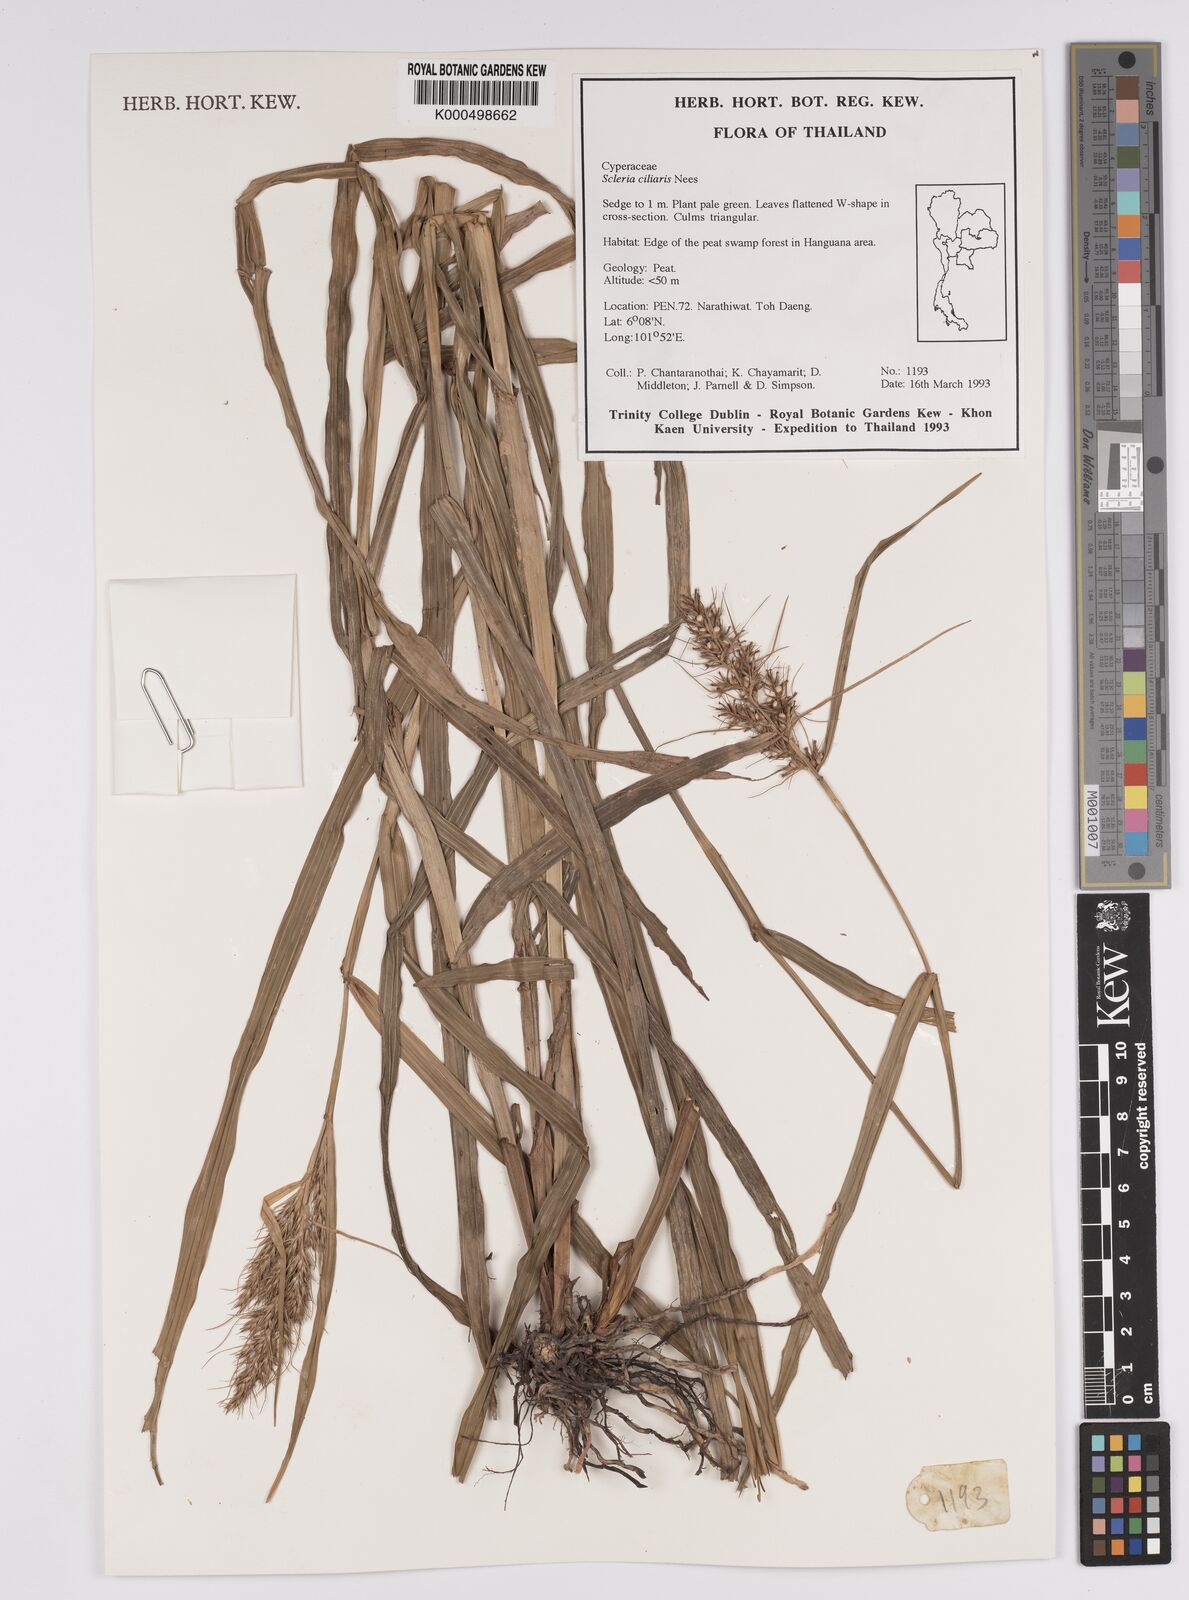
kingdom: Plantae
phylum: Tracheophyta
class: Liliopsida
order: Poales
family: Cyperaceae
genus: Scleria
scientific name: Scleria ciliaris
